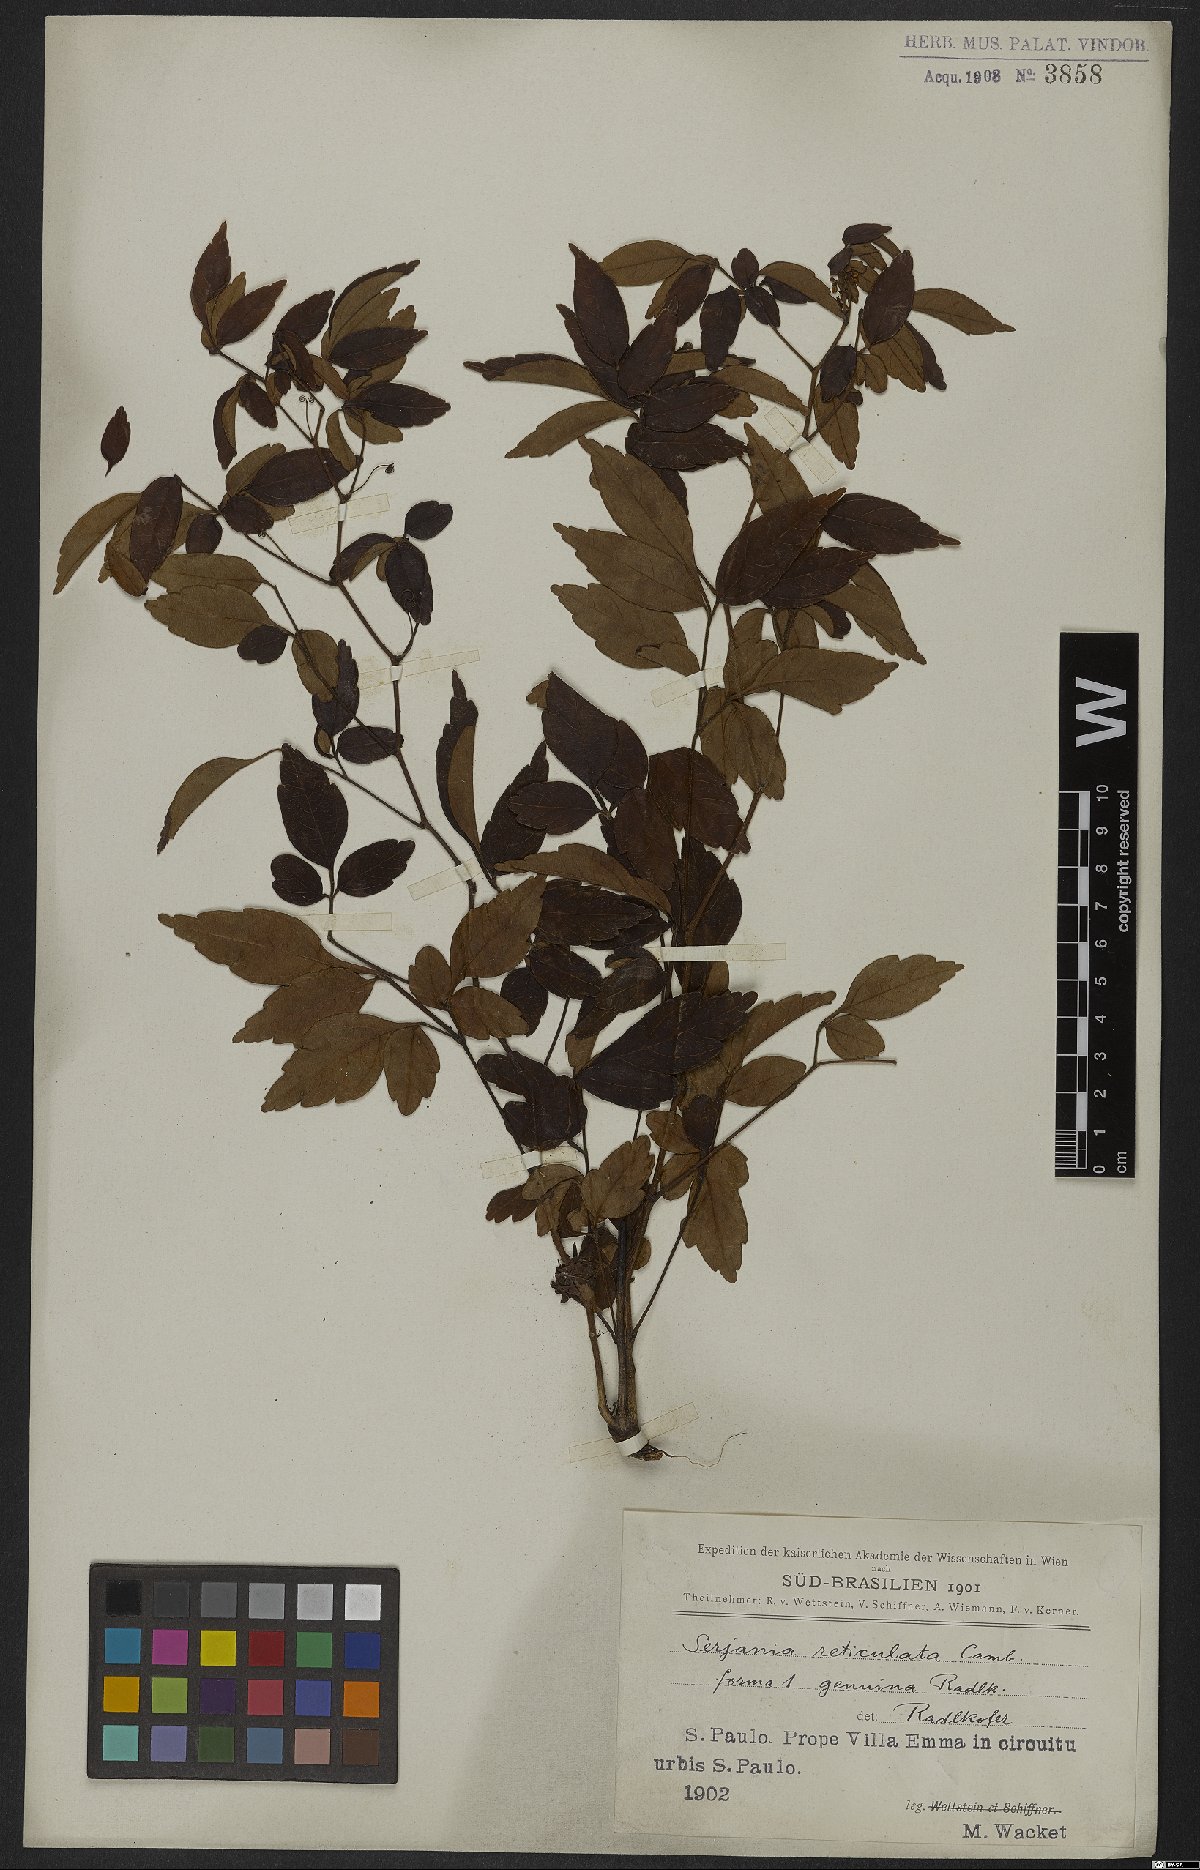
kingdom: Plantae
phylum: Tracheophyta
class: Magnoliopsida
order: Sapindales
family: Sapindaceae
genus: Serjania
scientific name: Serjania reticulata
